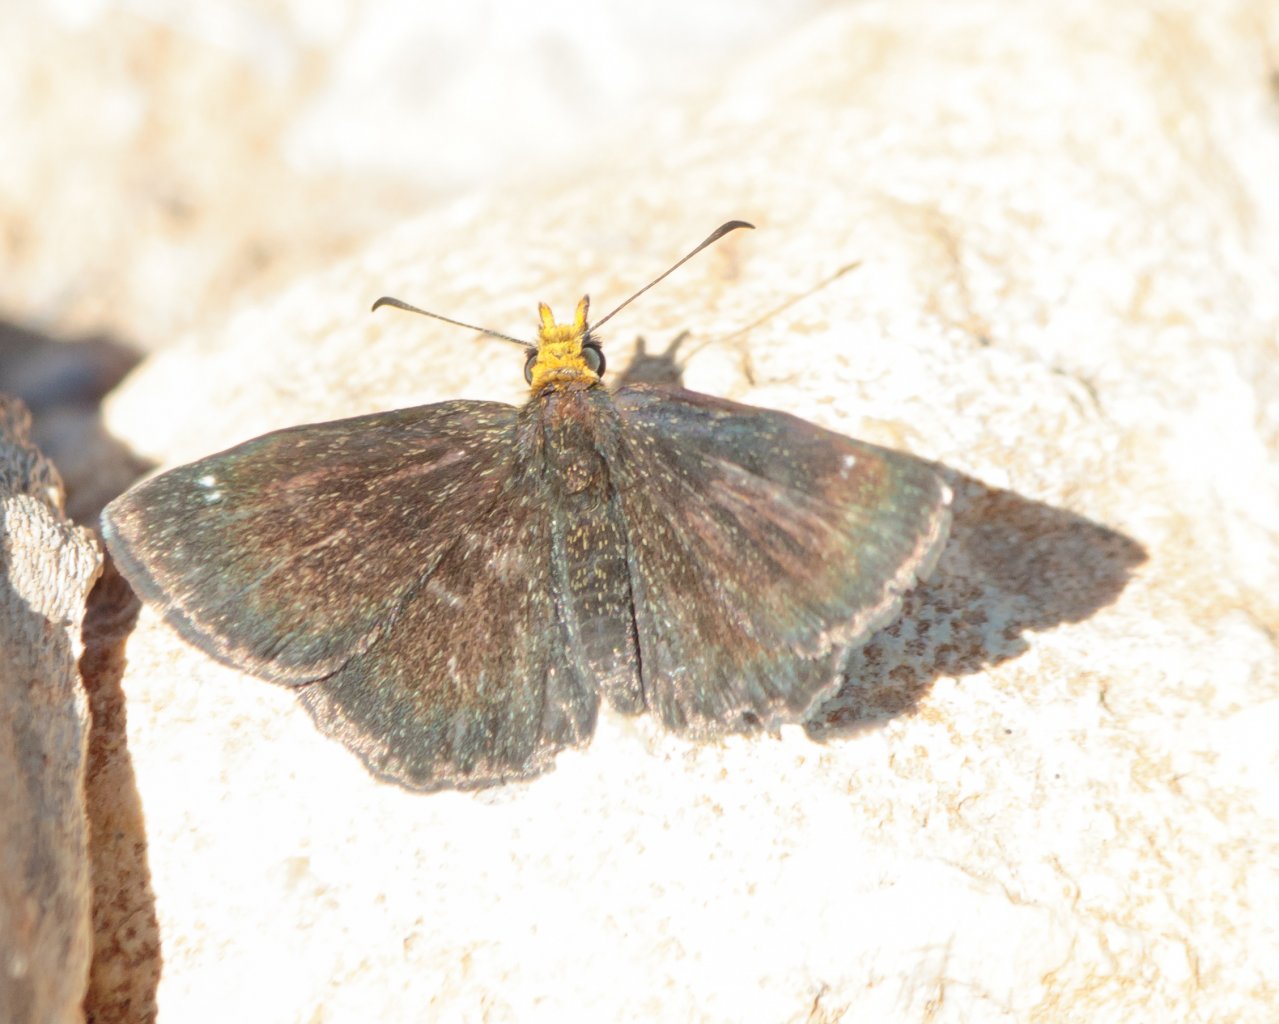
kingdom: Animalia
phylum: Arthropoda
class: Insecta
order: Lepidoptera
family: Hesperiidae
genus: Staphylus
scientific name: Staphylus ceos
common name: Golden-headed Scallopwing
